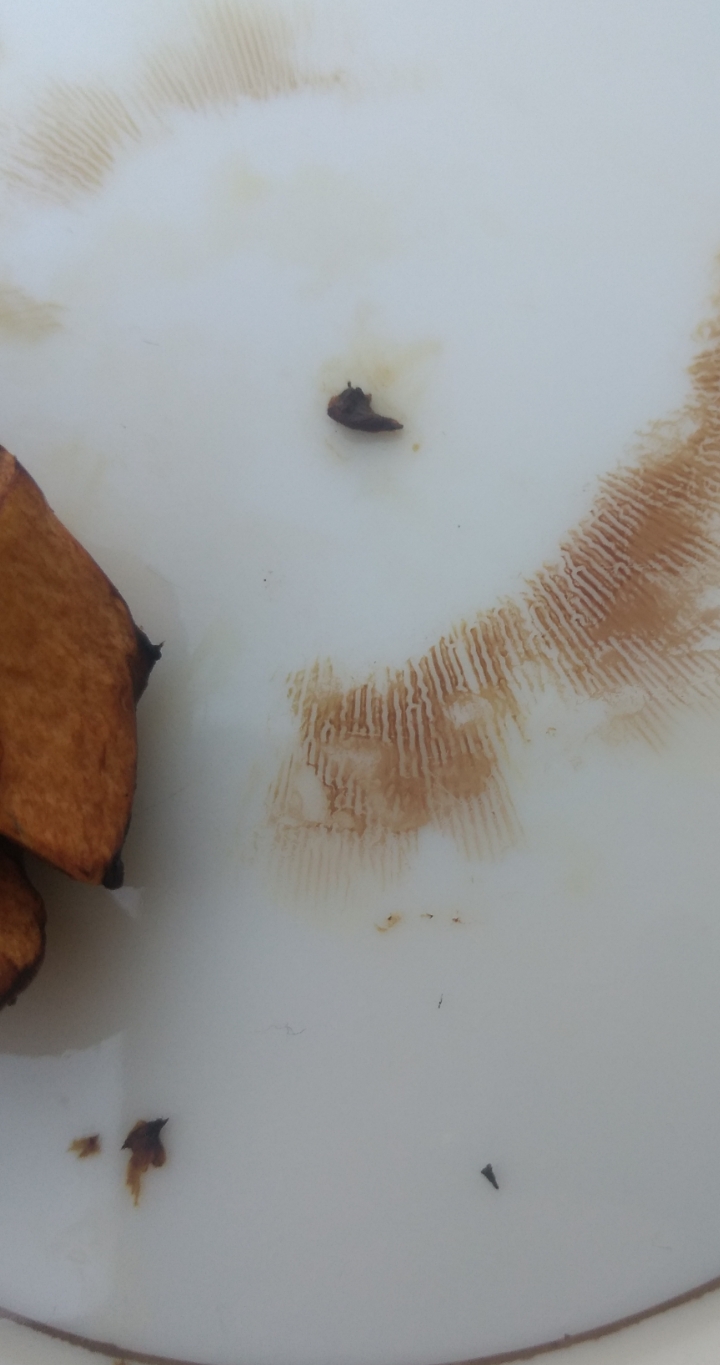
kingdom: Fungi
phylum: Basidiomycota
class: Agaricomycetes
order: Boletales
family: Paxillaceae
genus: Paxillus
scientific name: Paxillus obscurisporus
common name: mahognisporet netbladhat
